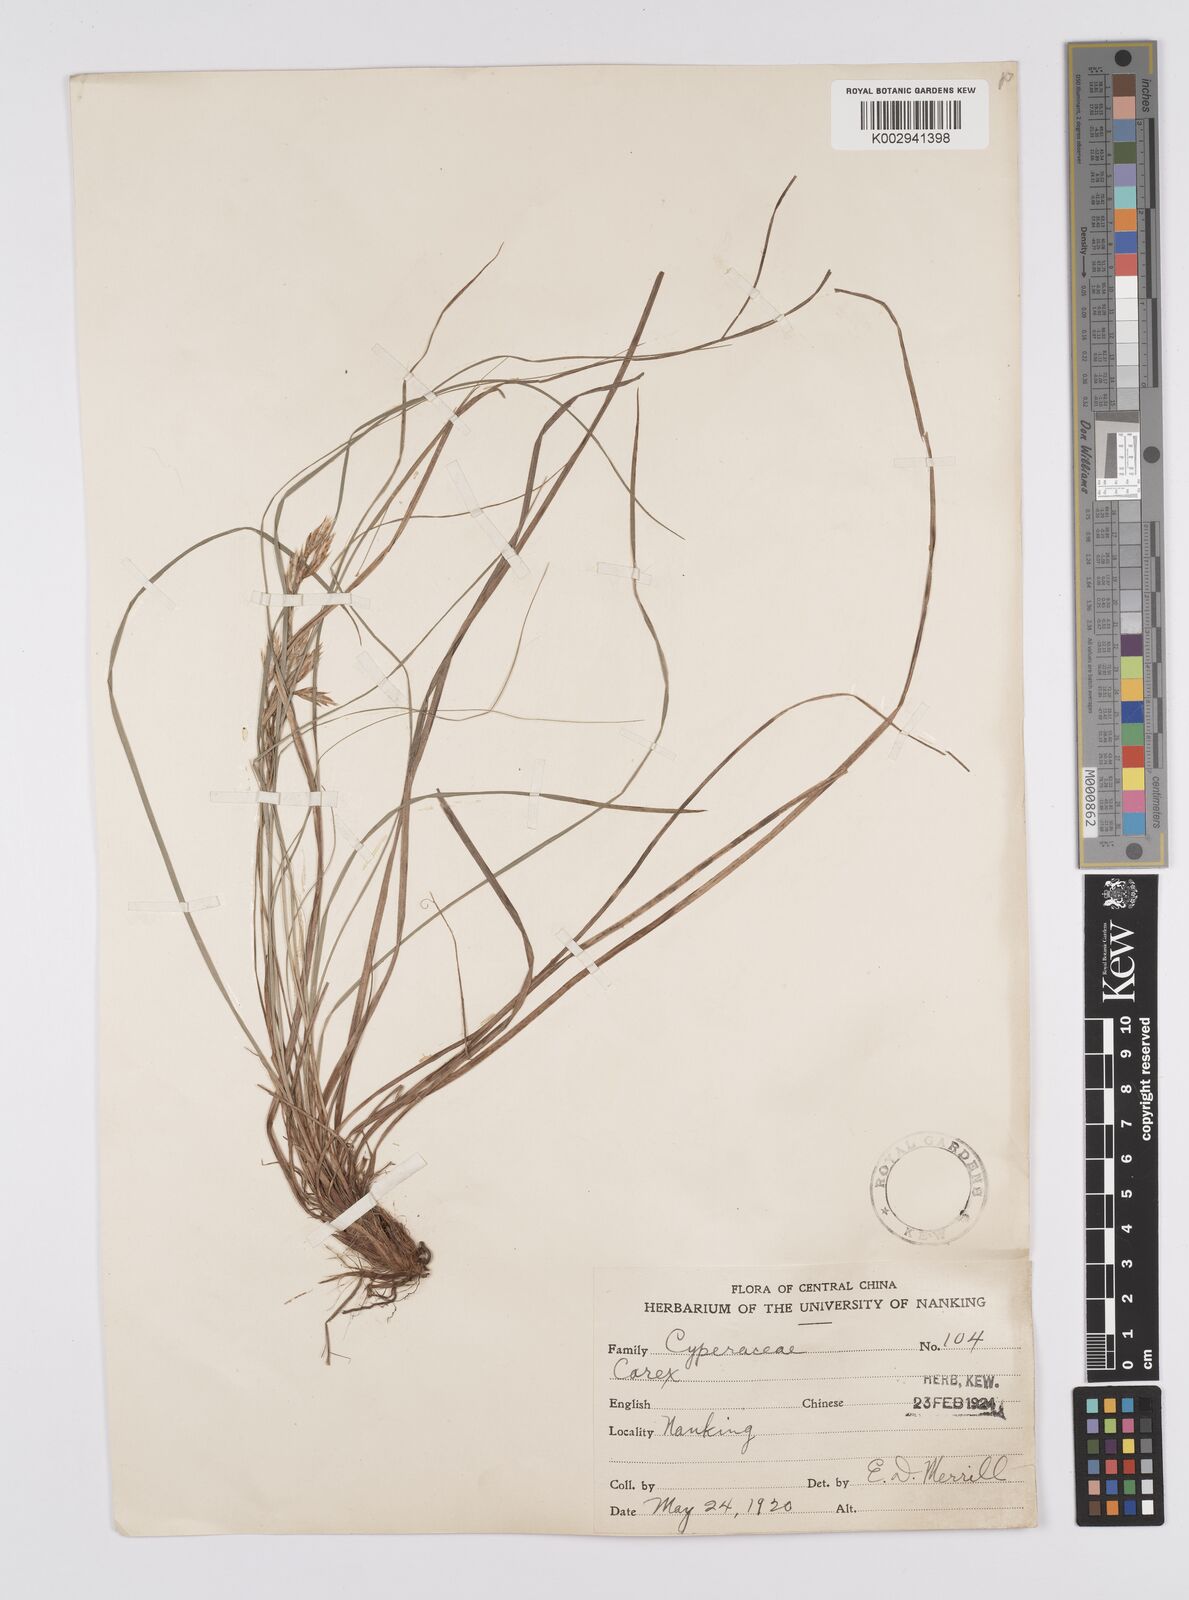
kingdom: Plantae
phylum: Tracheophyta
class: Liliopsida
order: Poales
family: Cyperaceae
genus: Carex
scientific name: Carex pediformis
